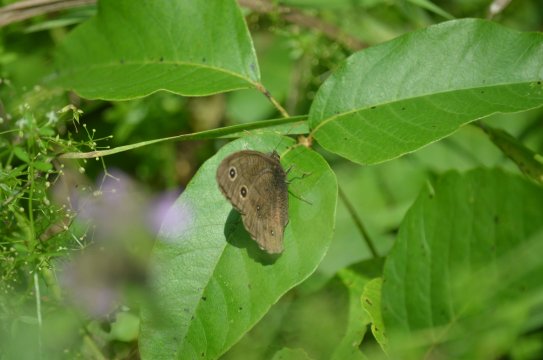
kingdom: Animalia
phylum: Arthropoda
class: Insecta
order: Lepidoptera
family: Nymphalidae
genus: Cercyonis
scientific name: Cercyonis pegala
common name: Common Wood-Nymph
